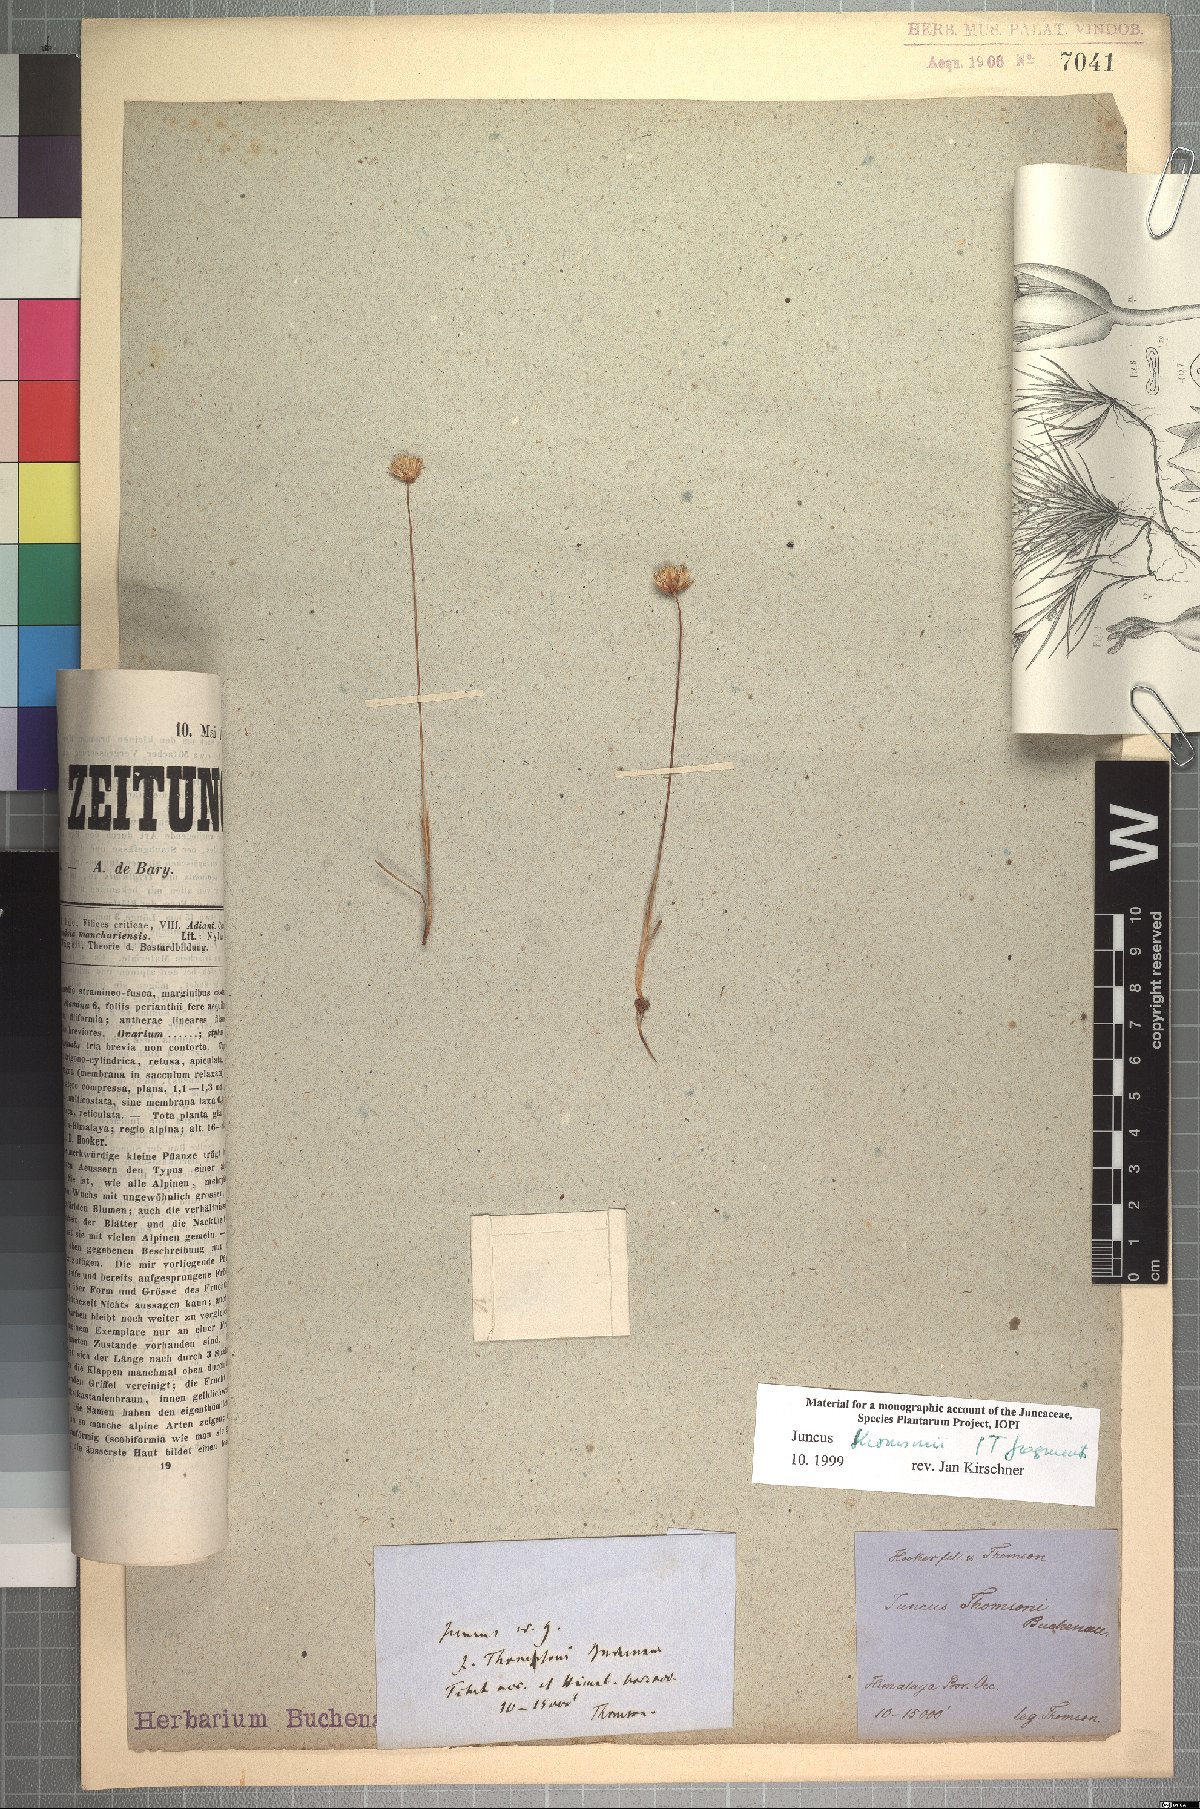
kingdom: Plantae
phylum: Tracheophyta
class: Liliopsida
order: Poales
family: Juncaceae
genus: Juncus
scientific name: Juncus thomsonii
